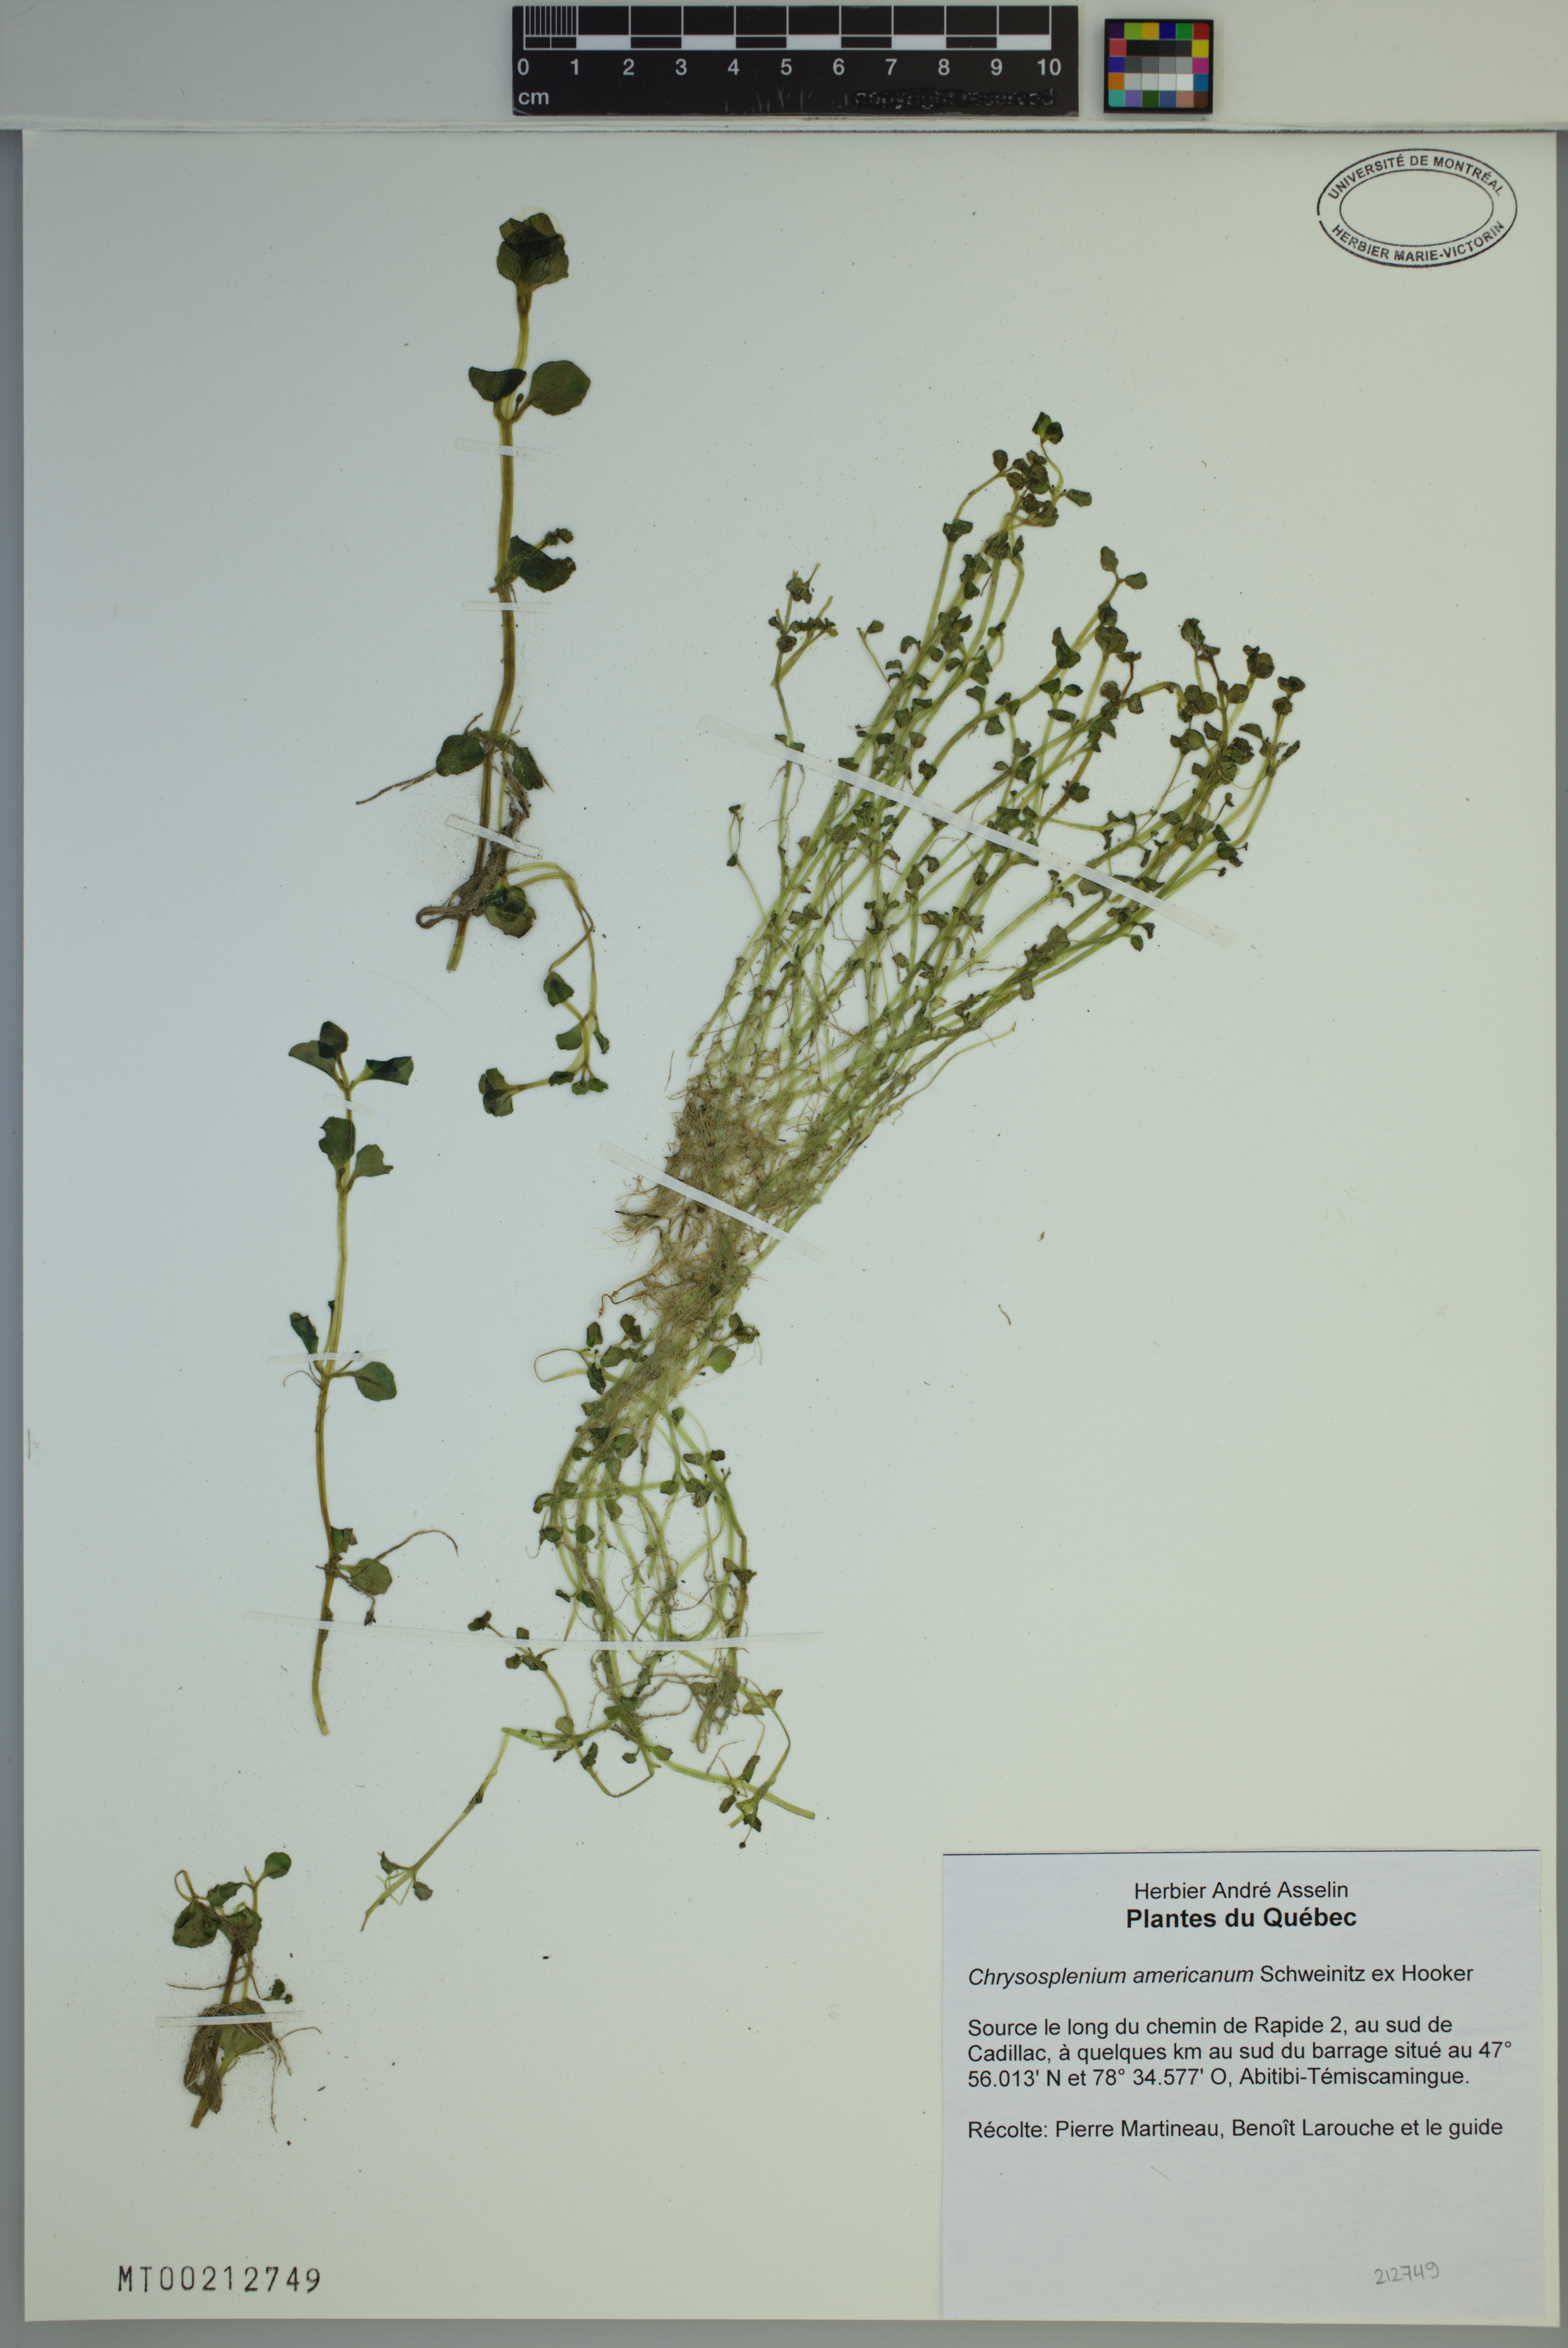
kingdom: Plantae
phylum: Tracheophyta
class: Magnoliopsida
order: Saxifragales
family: Saxifragaceae
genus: Chrysosplenium
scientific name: Chrysosplenium americanum
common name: American golden-saxifrage
